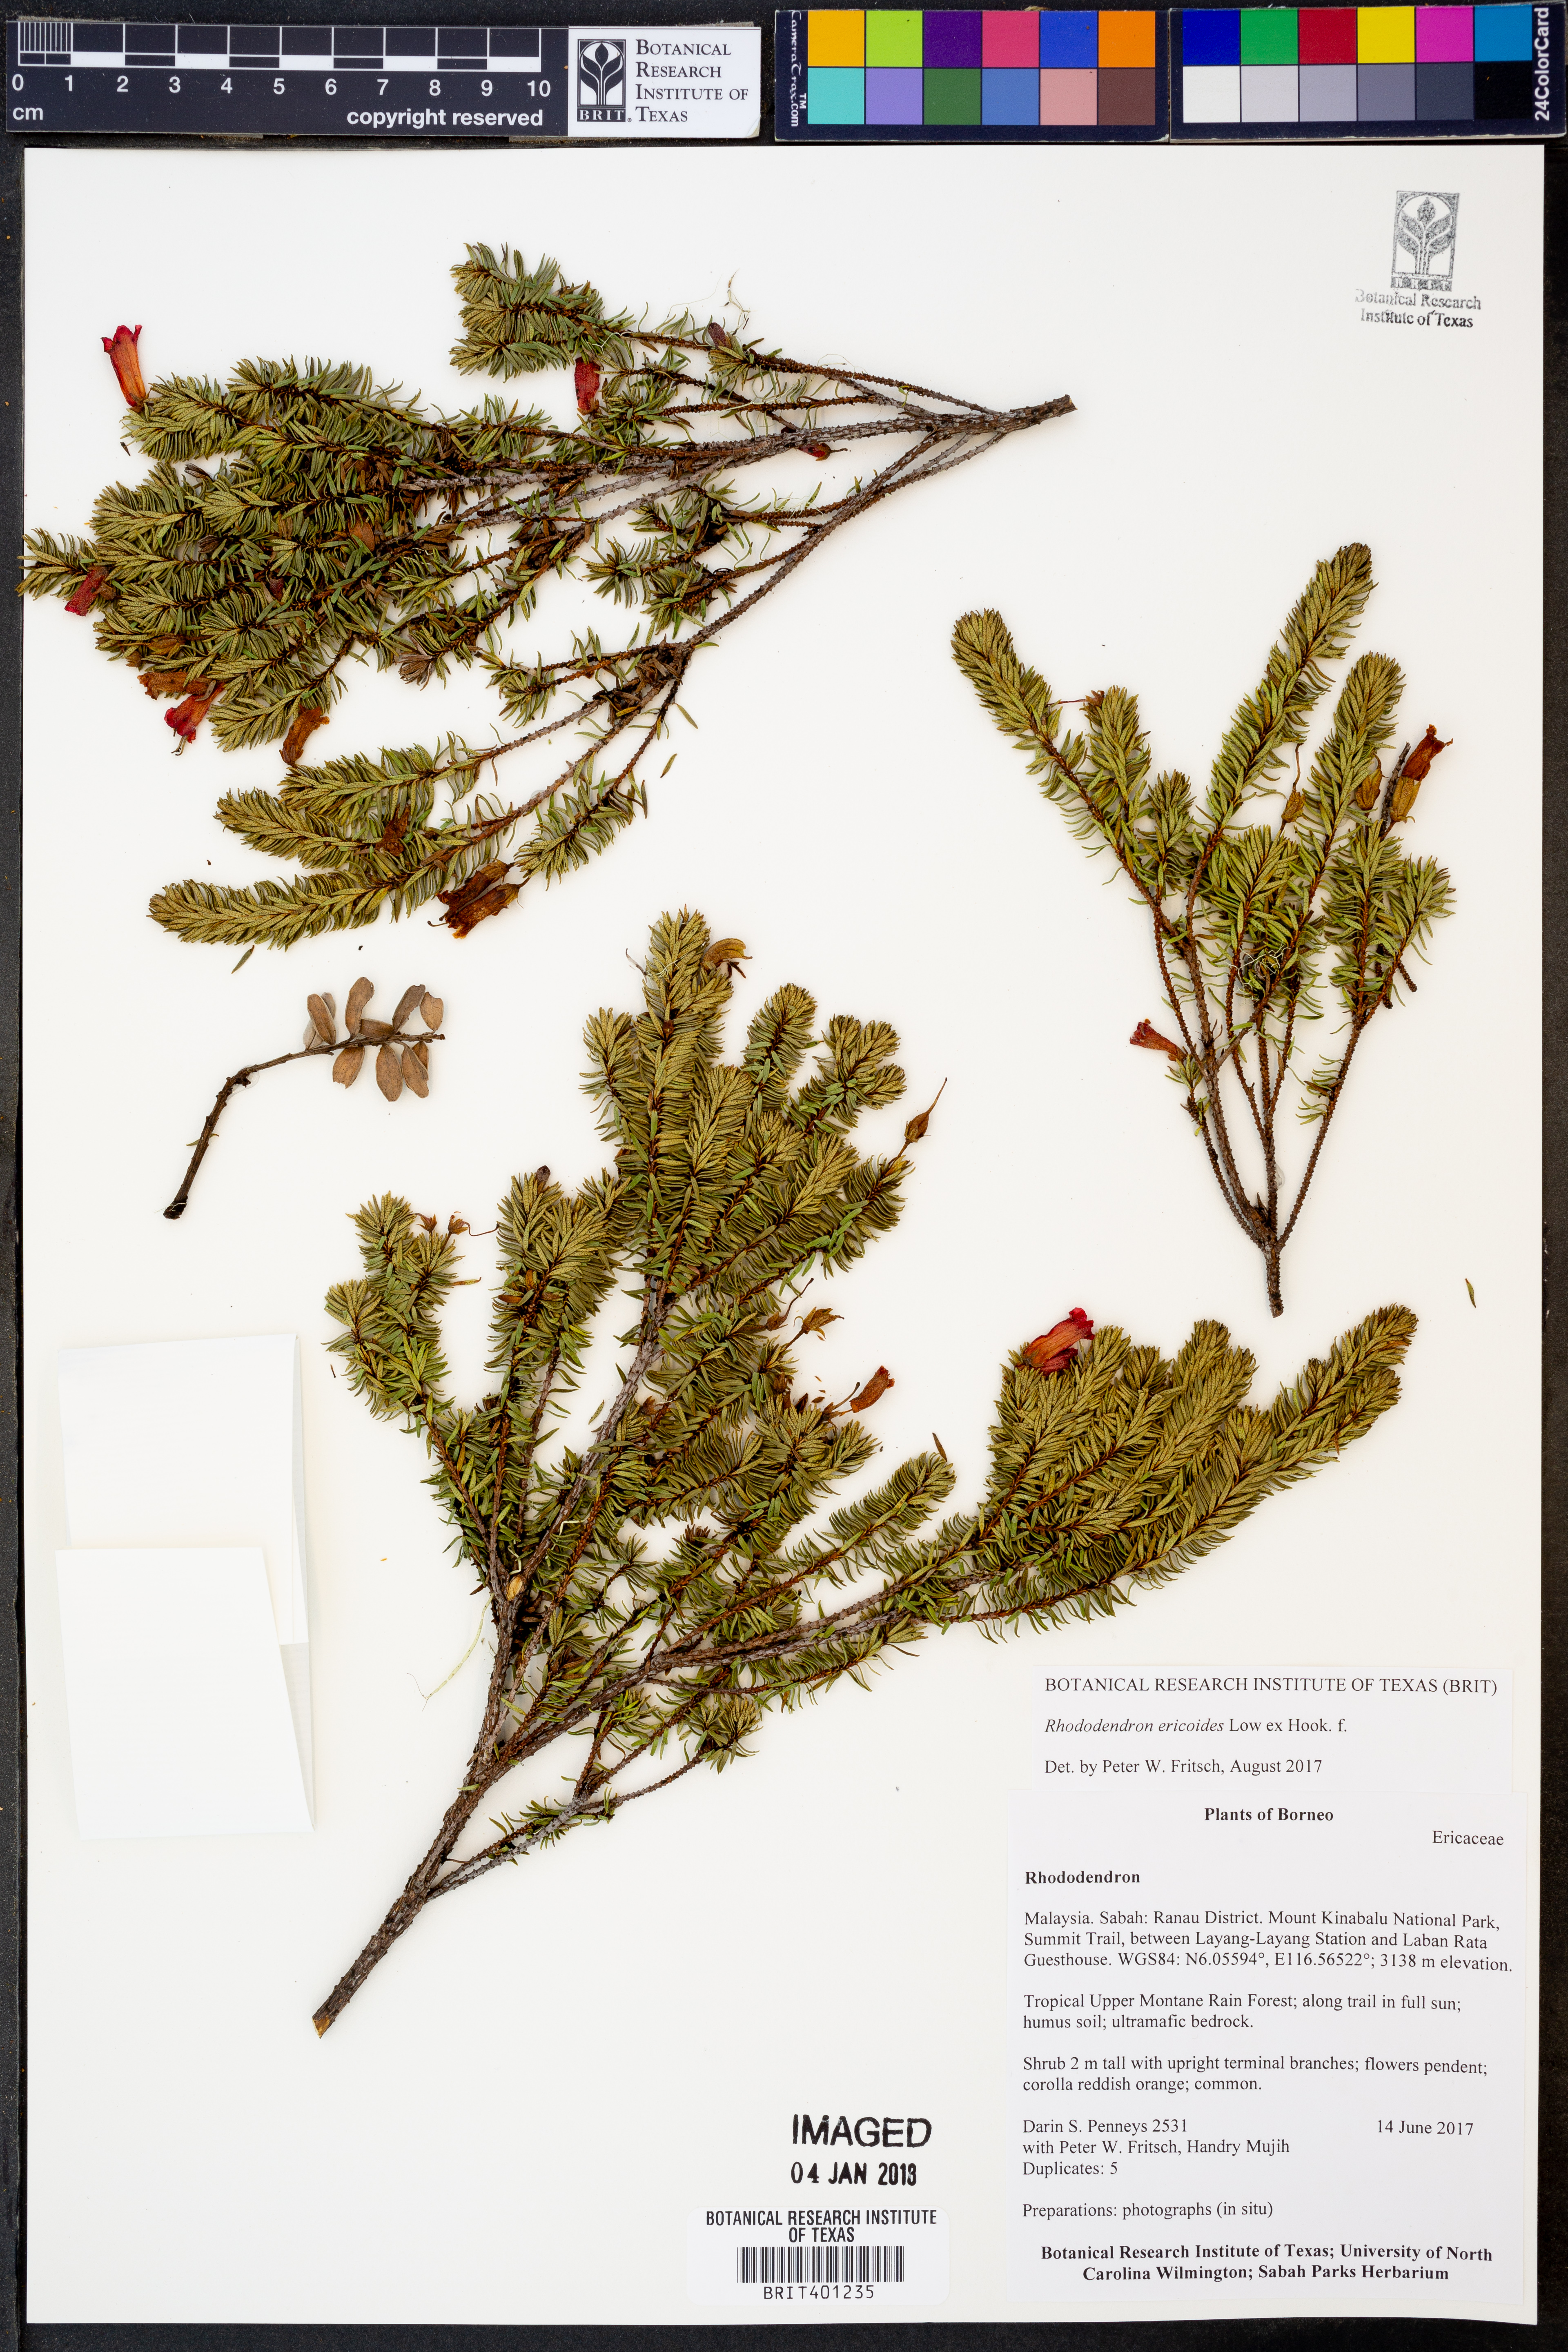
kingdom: Plantae
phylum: Tracheophyta
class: Magnoliopsida
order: Ericales
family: Ericaceae
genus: Rhododendron
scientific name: Rhododendron ericoides
